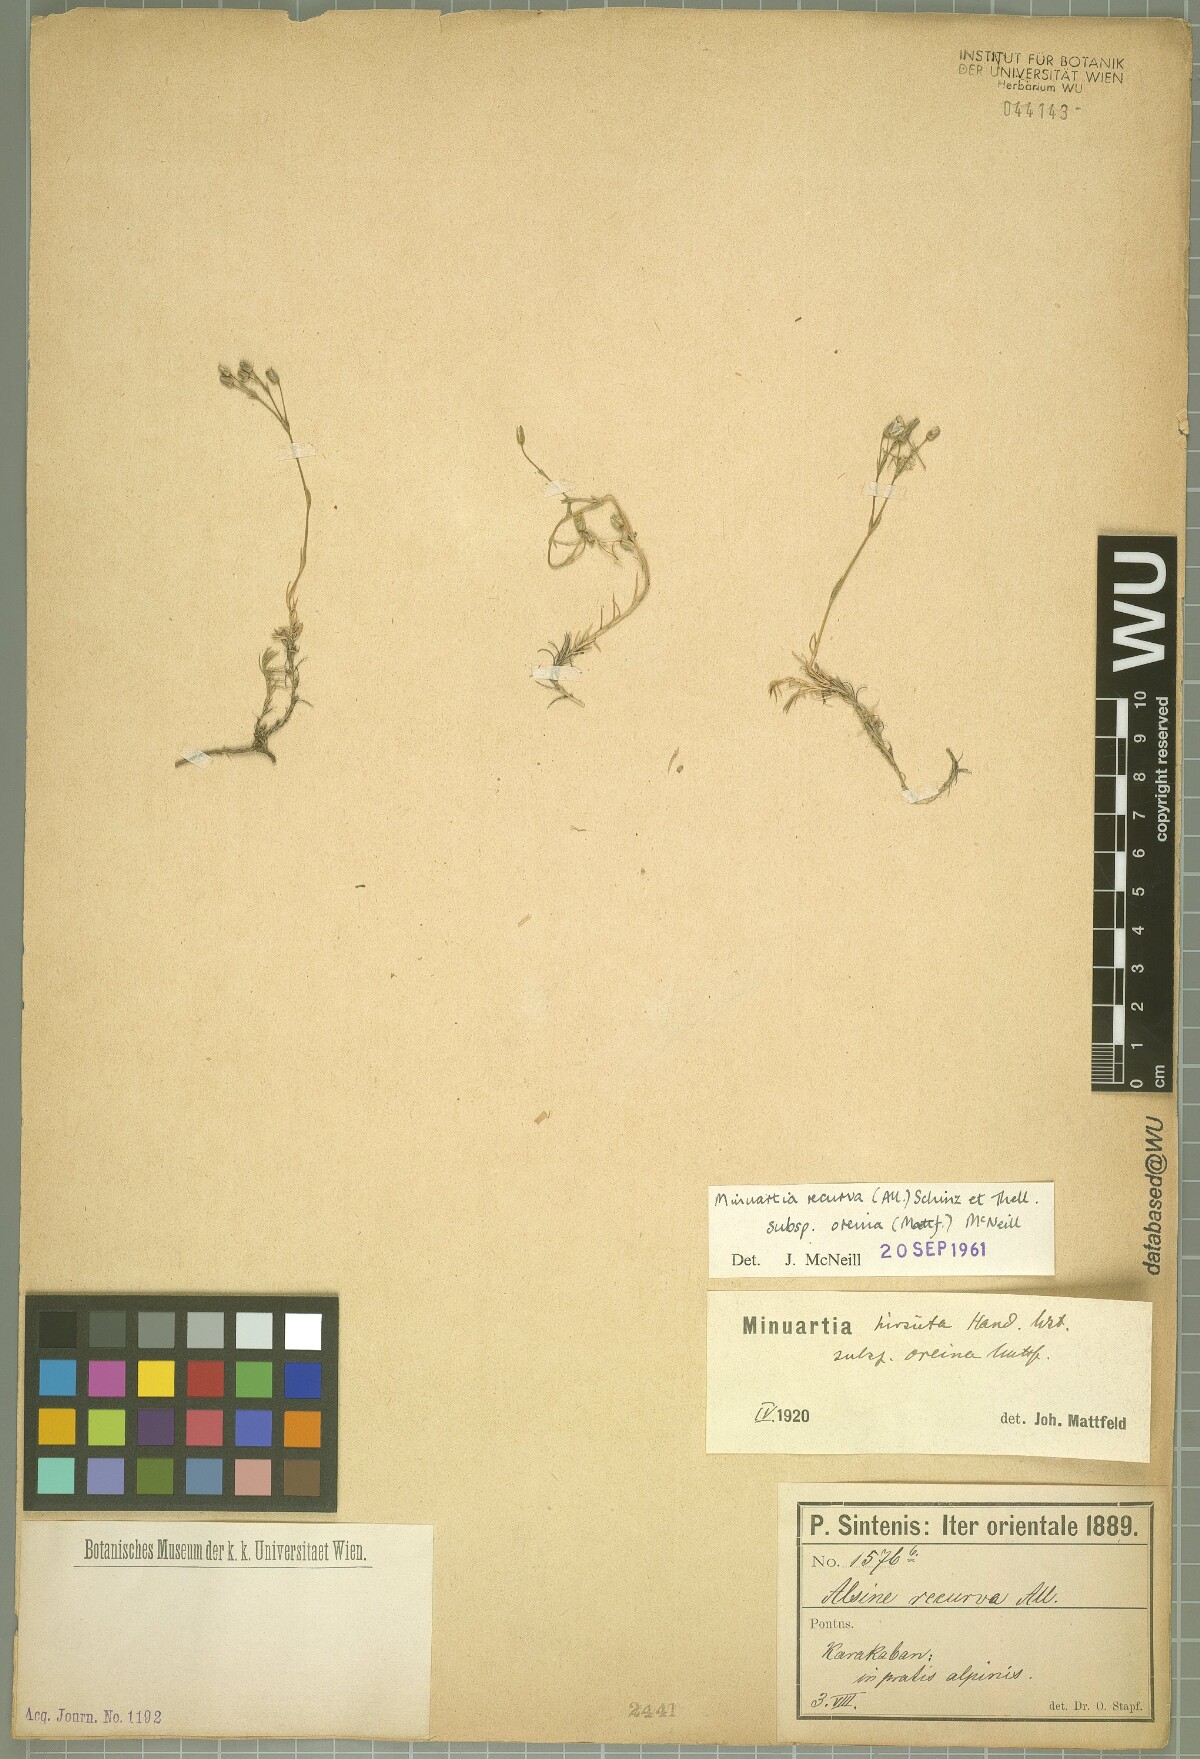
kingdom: Plantae
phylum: Tracheophyta
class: Magnoliopsida
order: Caryophyllales
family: Caryophyllaceae
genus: Minuartia
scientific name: Minuartia hirsuta
